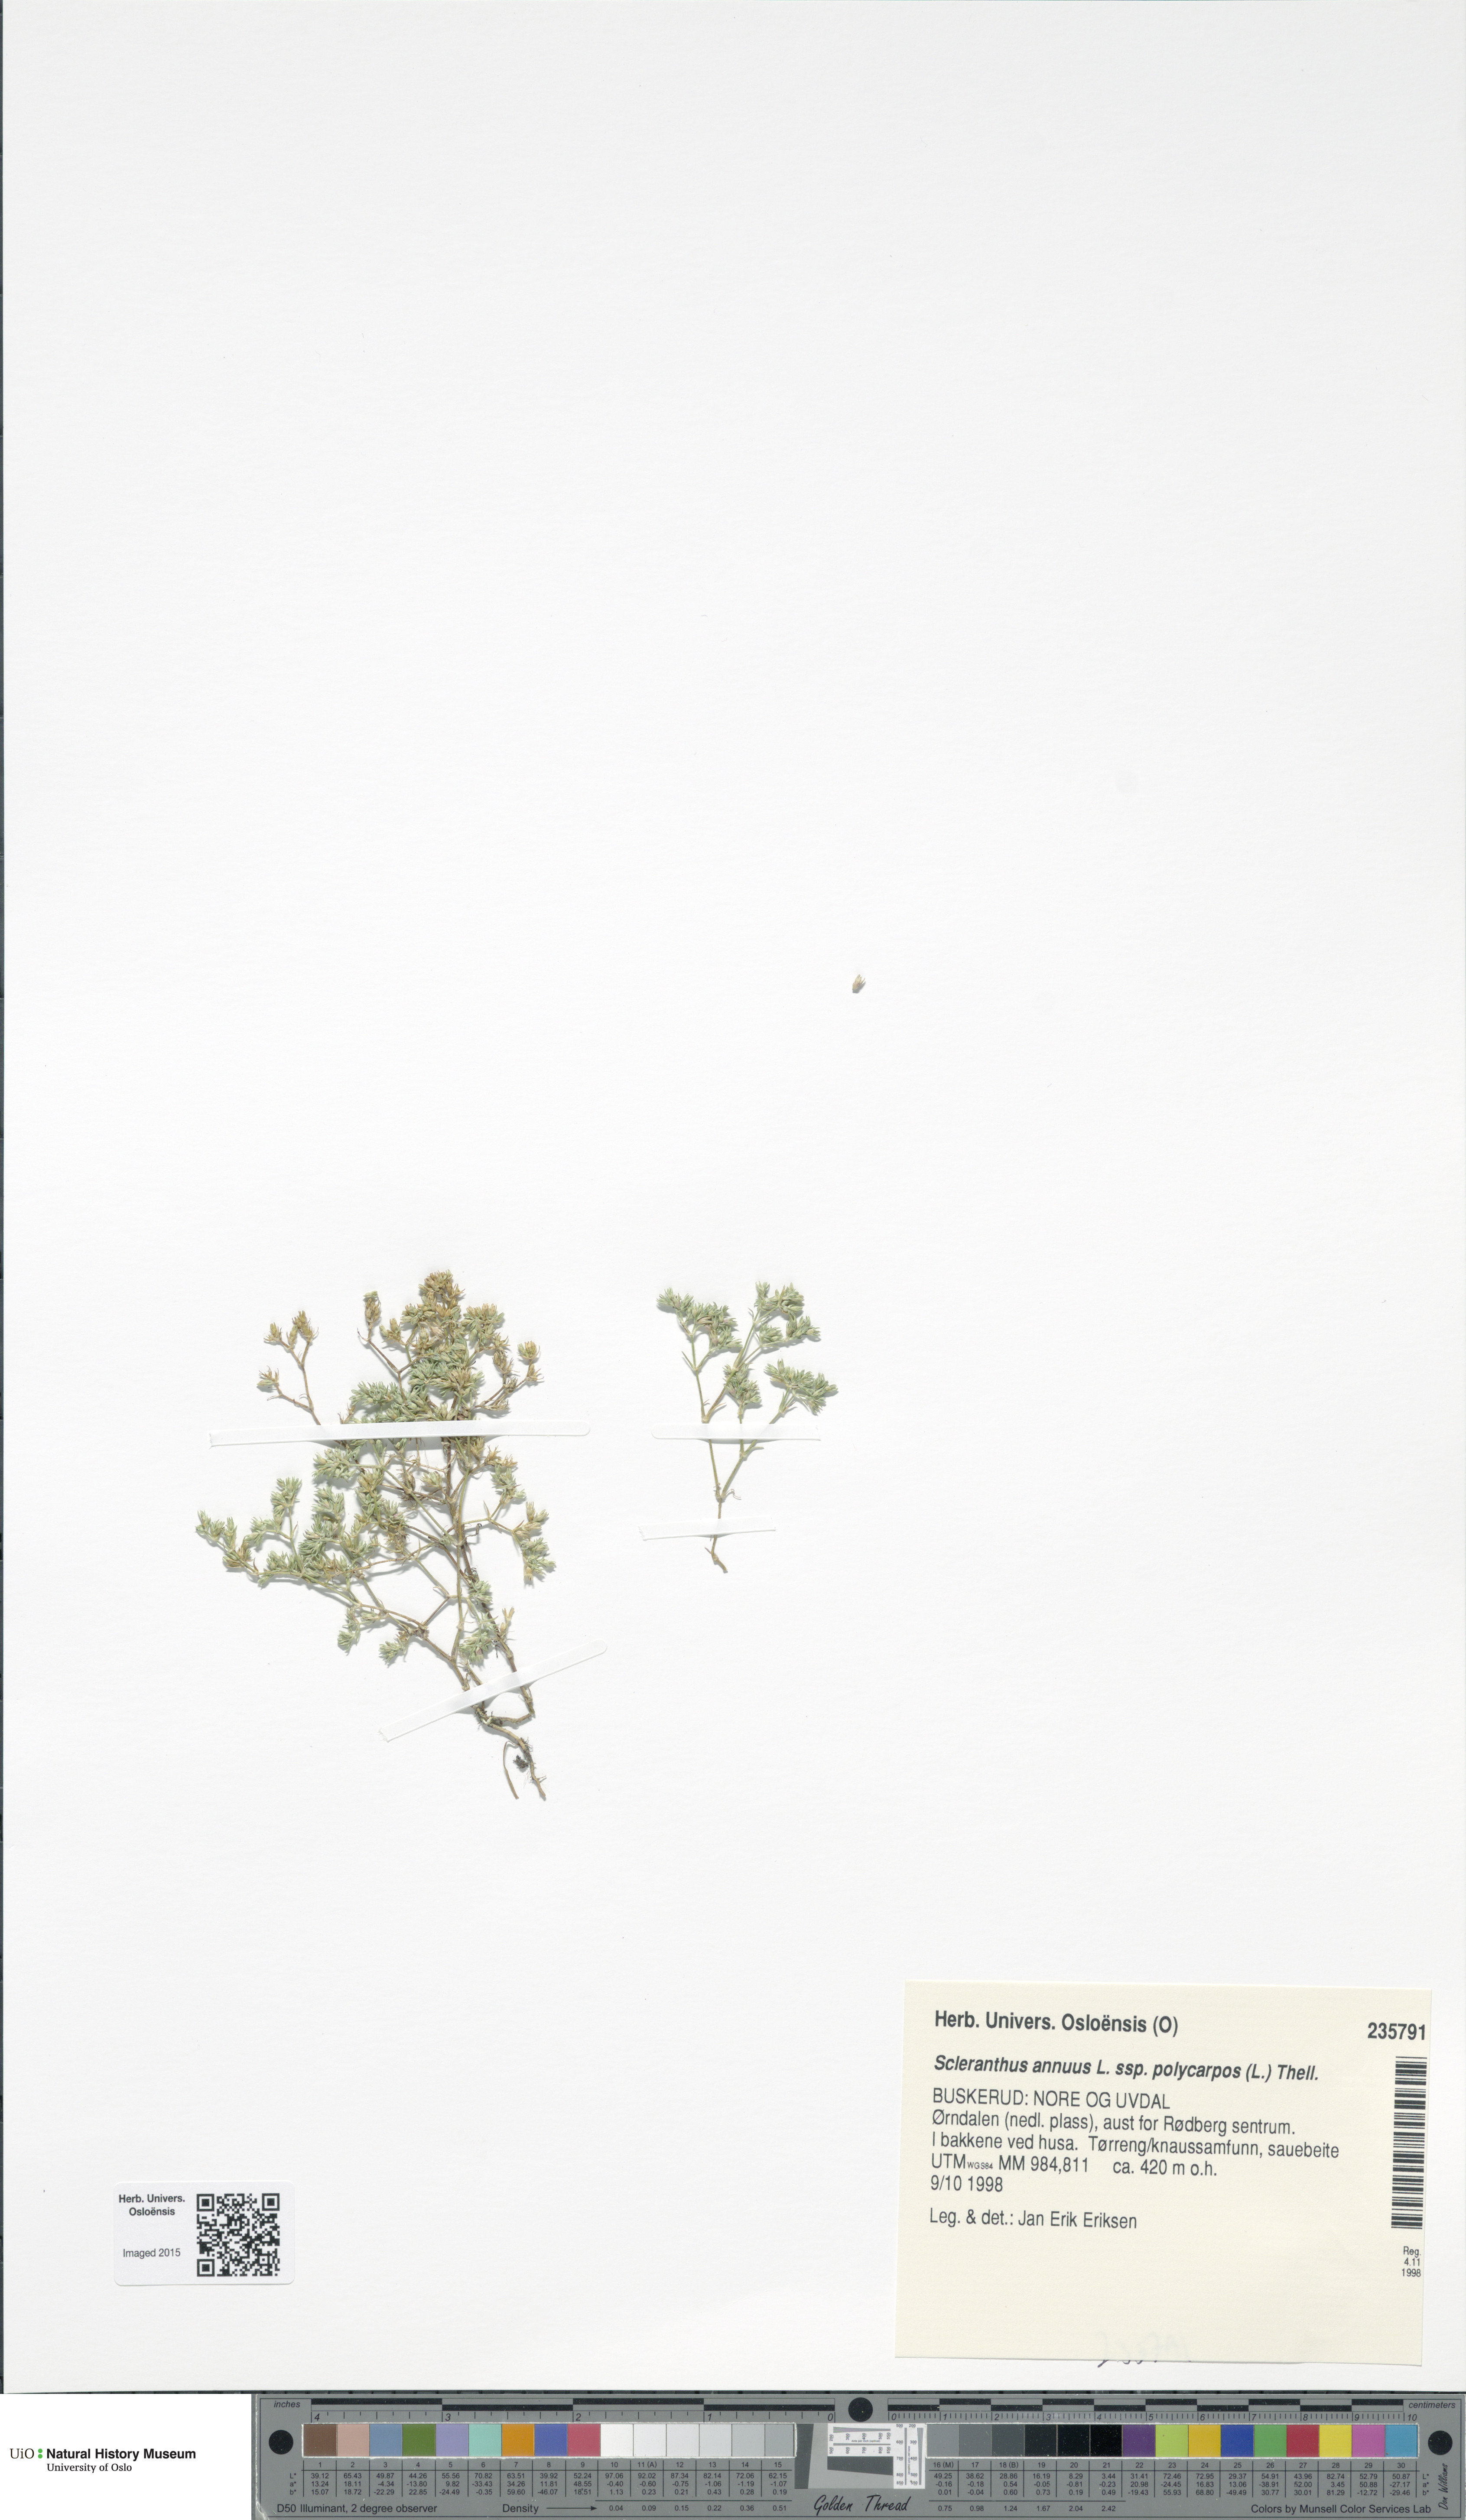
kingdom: Plantae
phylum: Tracheophyta
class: Magnoliopsida
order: Caryophyllales
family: Caryophyllaceae
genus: Scleranthus
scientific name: Scleranthus annuus
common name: Annual knawel
